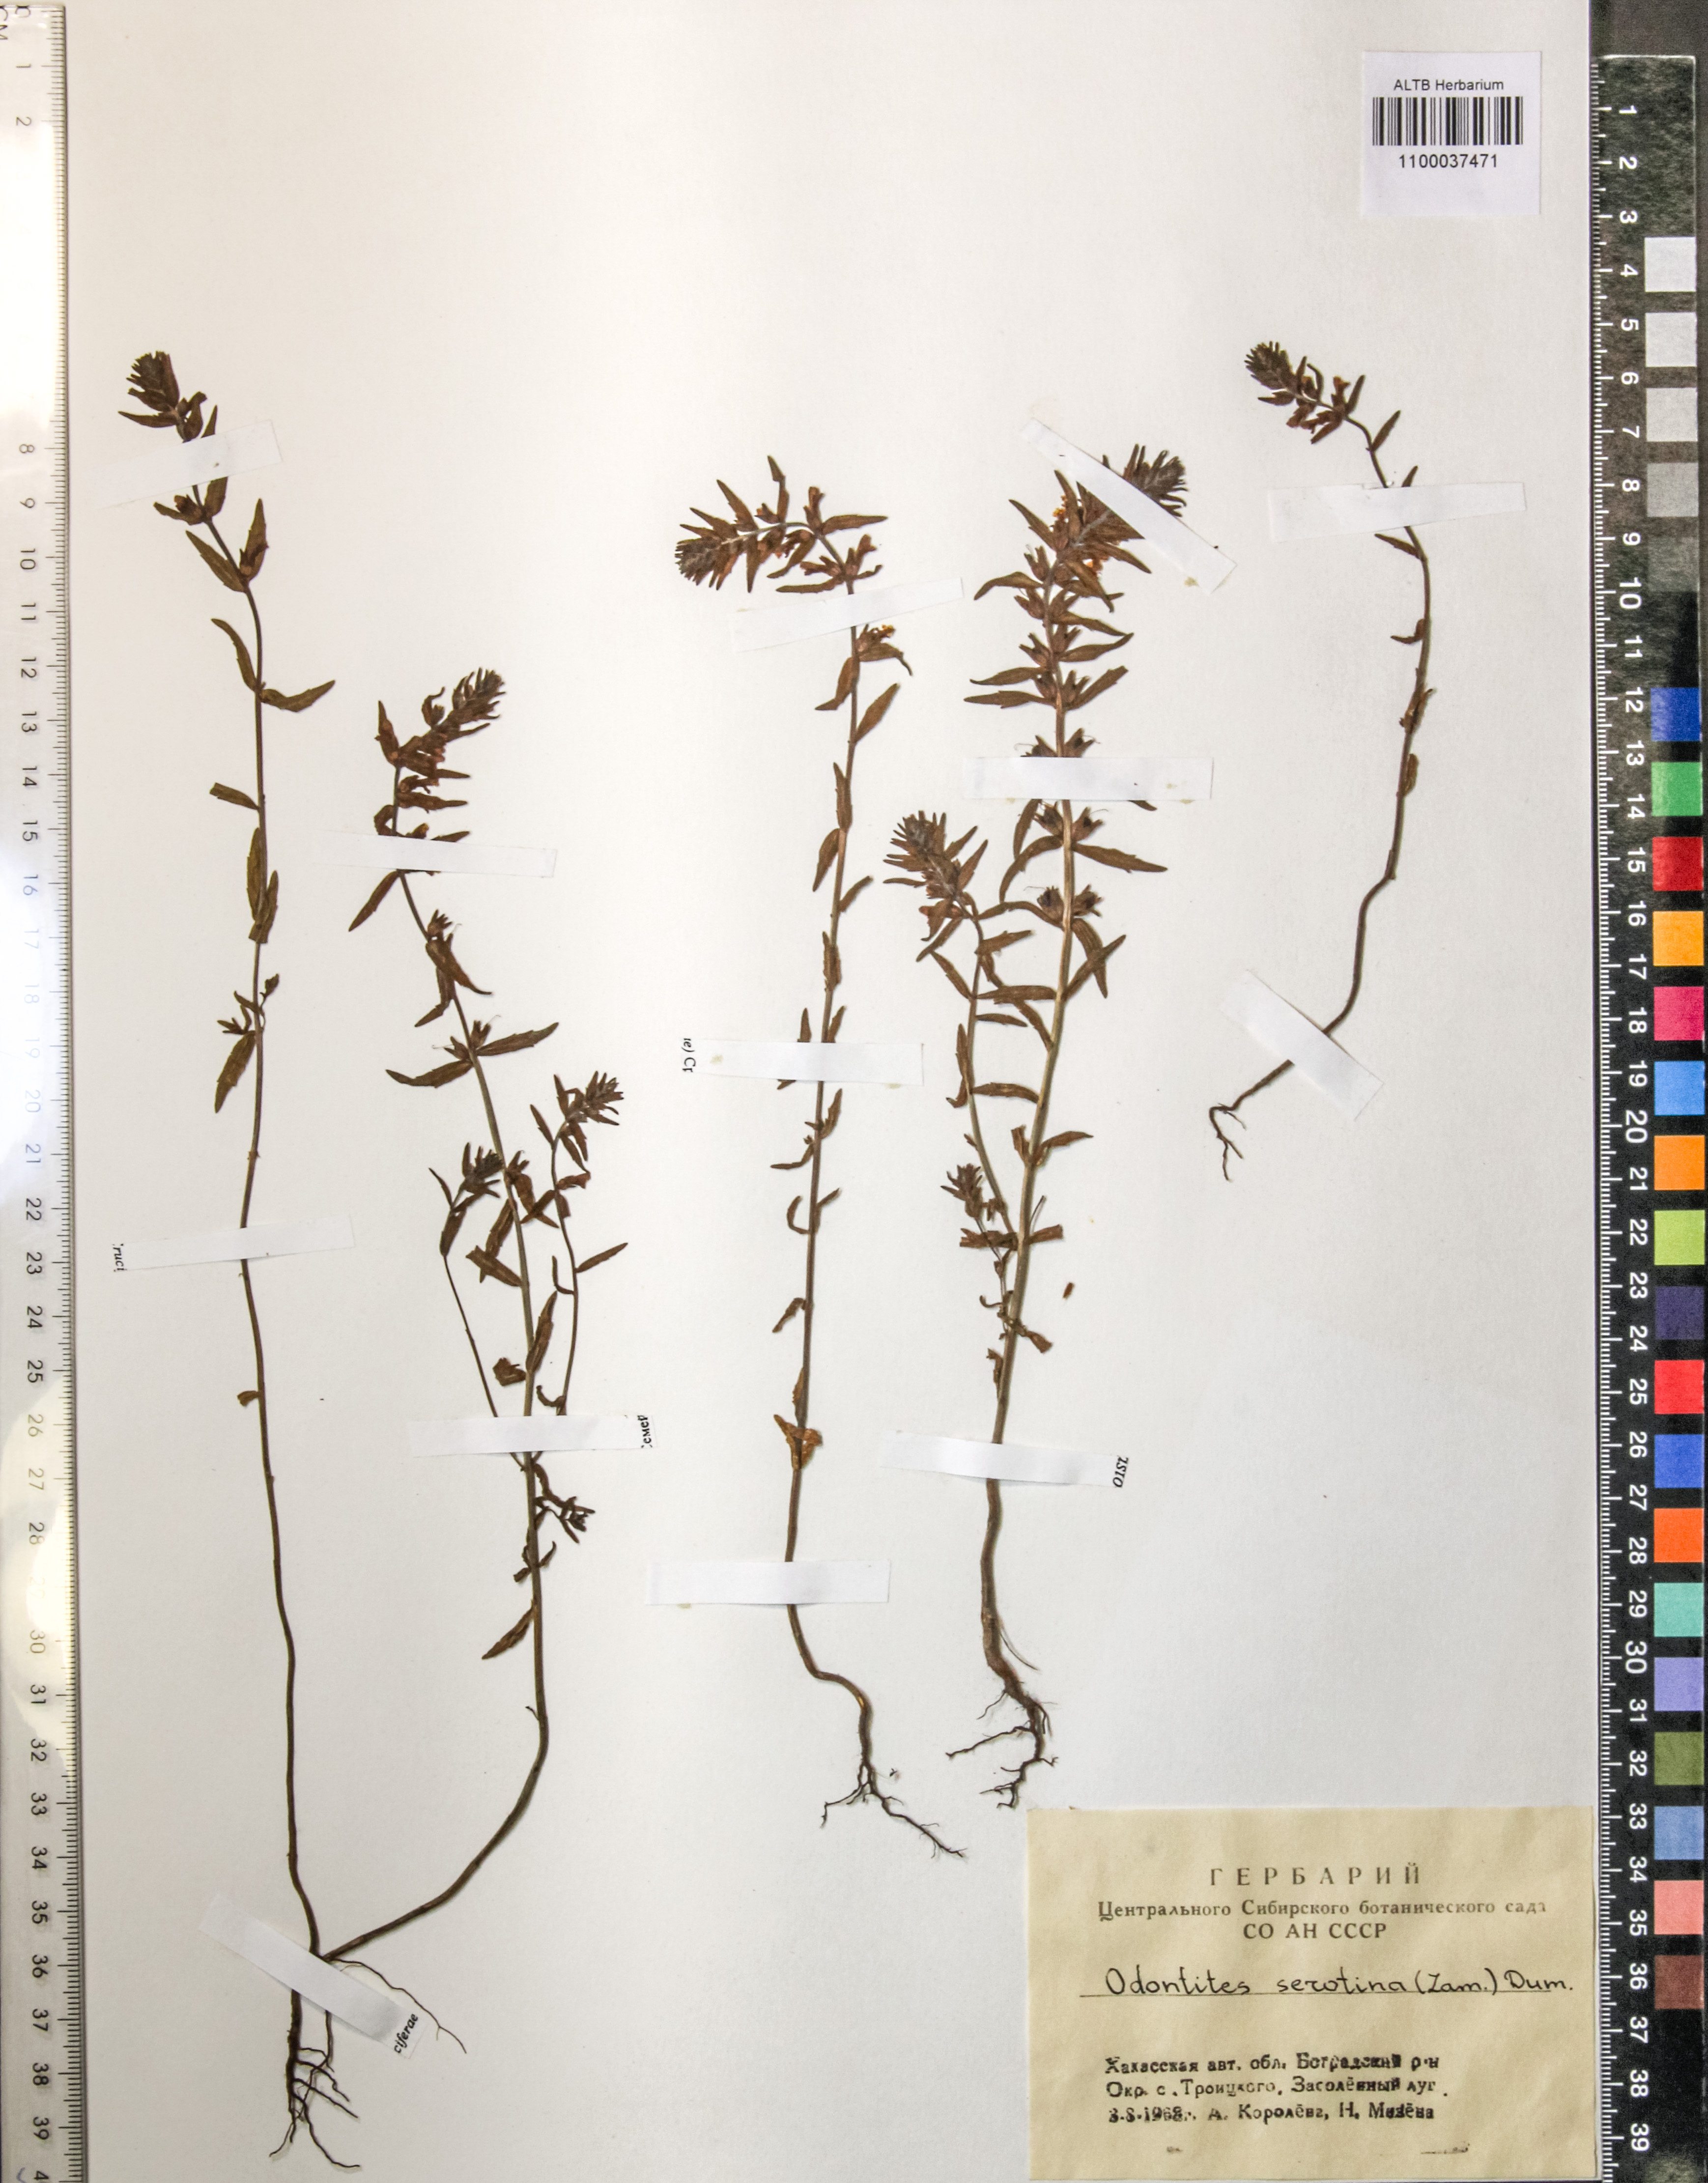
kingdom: Plantae
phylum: Tracheophyta
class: Magnoliopsida
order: Lamiales
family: Orobanchaceae
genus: Odontites
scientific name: Odontites vulgaris
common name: Broomrape
